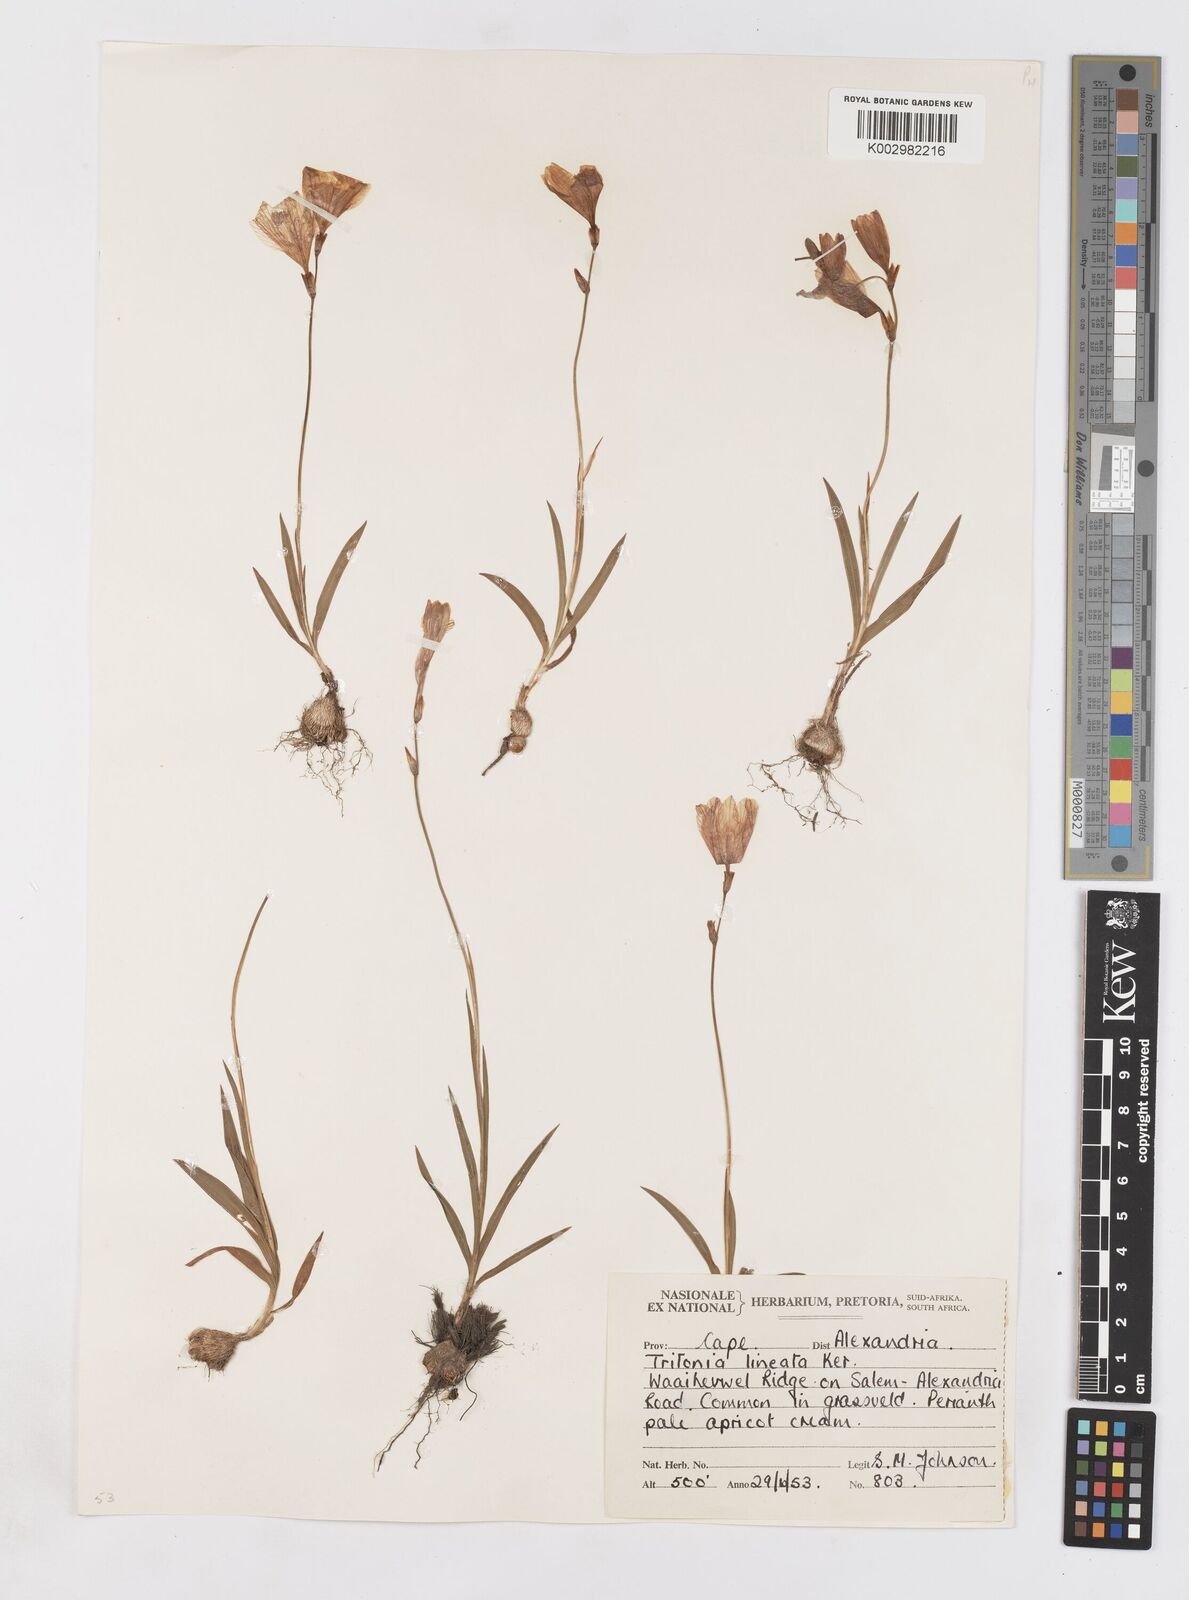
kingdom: Plantae
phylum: Tracheophyta
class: Liliopsida
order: Asparagales
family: Iridaceae
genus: Tritonia
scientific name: Tritonia gladiolaris
